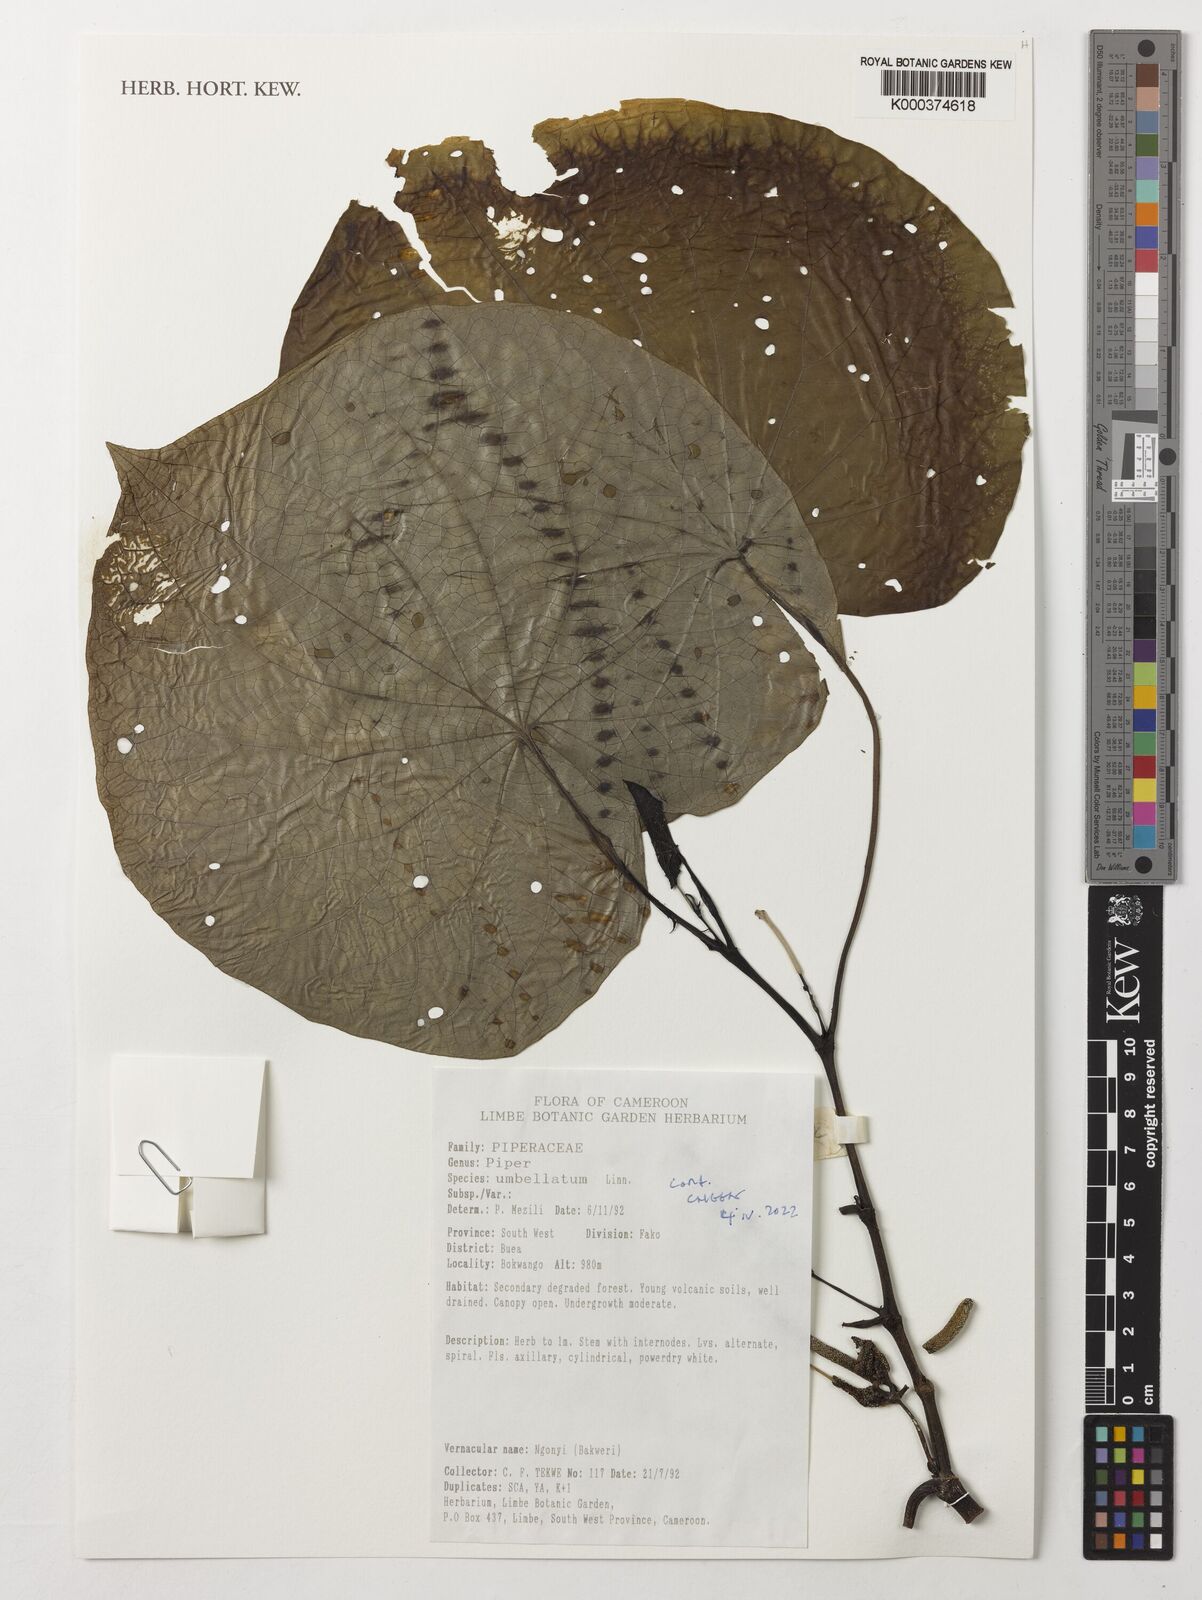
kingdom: Plantae
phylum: Tracheophyta
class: Magnoliopsida
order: Piperales
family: Piperaceae
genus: Piper
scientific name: Piper umbellatum
